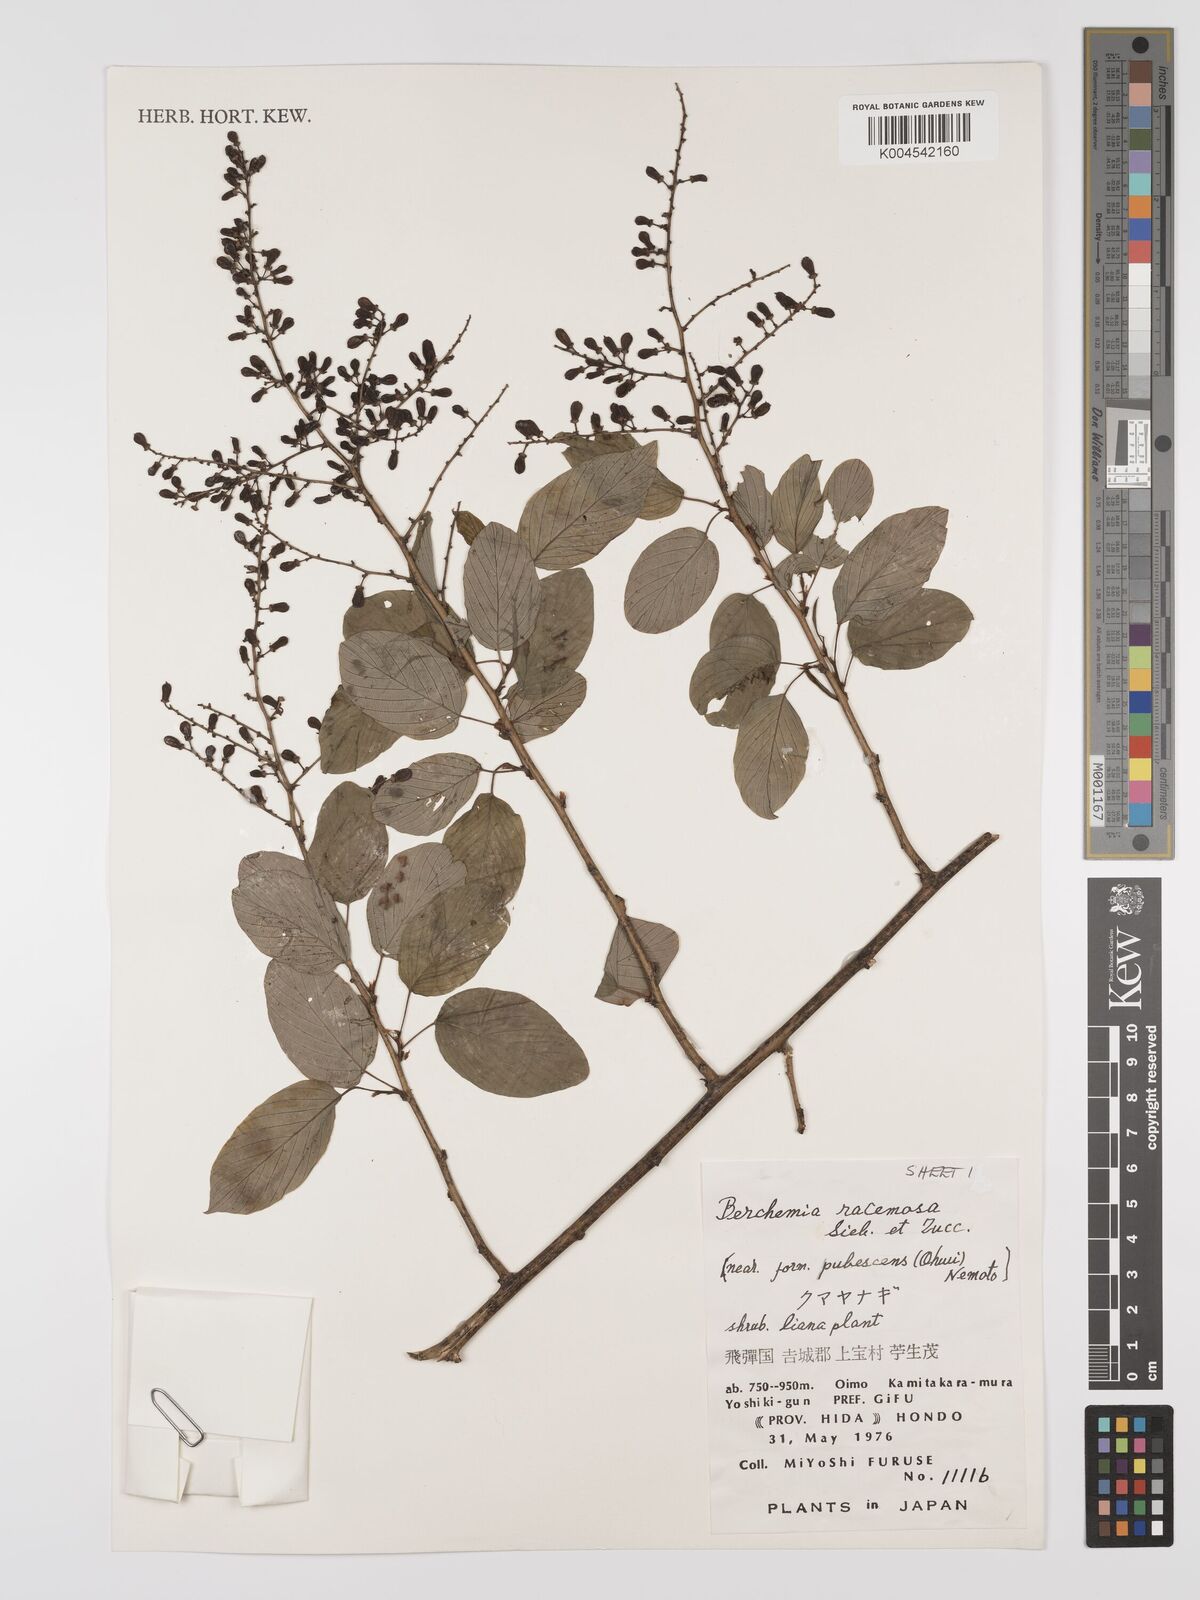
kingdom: Plantae
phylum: Tracheophyta
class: Magnoliopsida
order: Rosales
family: Rhamnaceae
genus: Berchemia
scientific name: Berchemia floribunda
